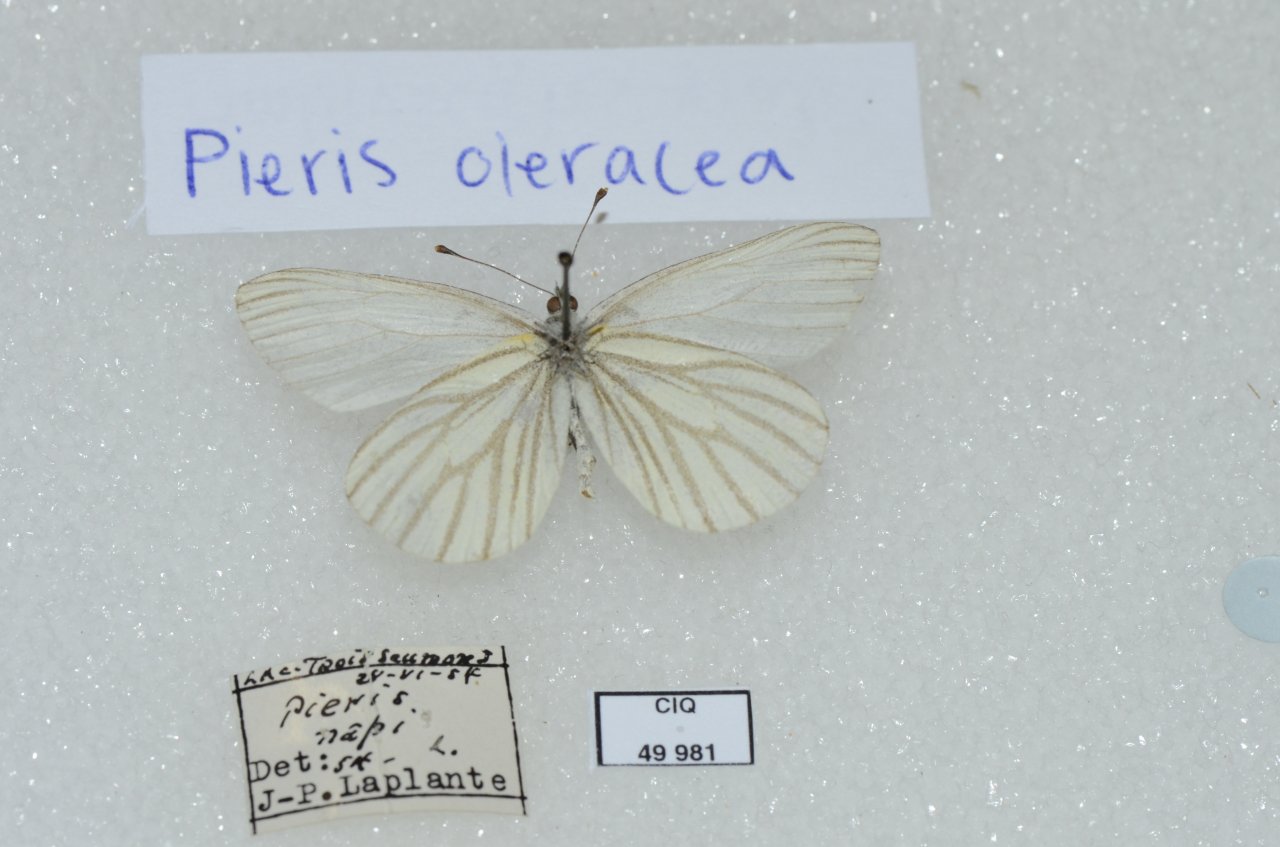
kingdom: Animalia
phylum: Arthropoda
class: Insecta
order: Lepidoptera
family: Pieridae
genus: Pieris
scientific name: Pieris oleracea
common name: Mustard White
